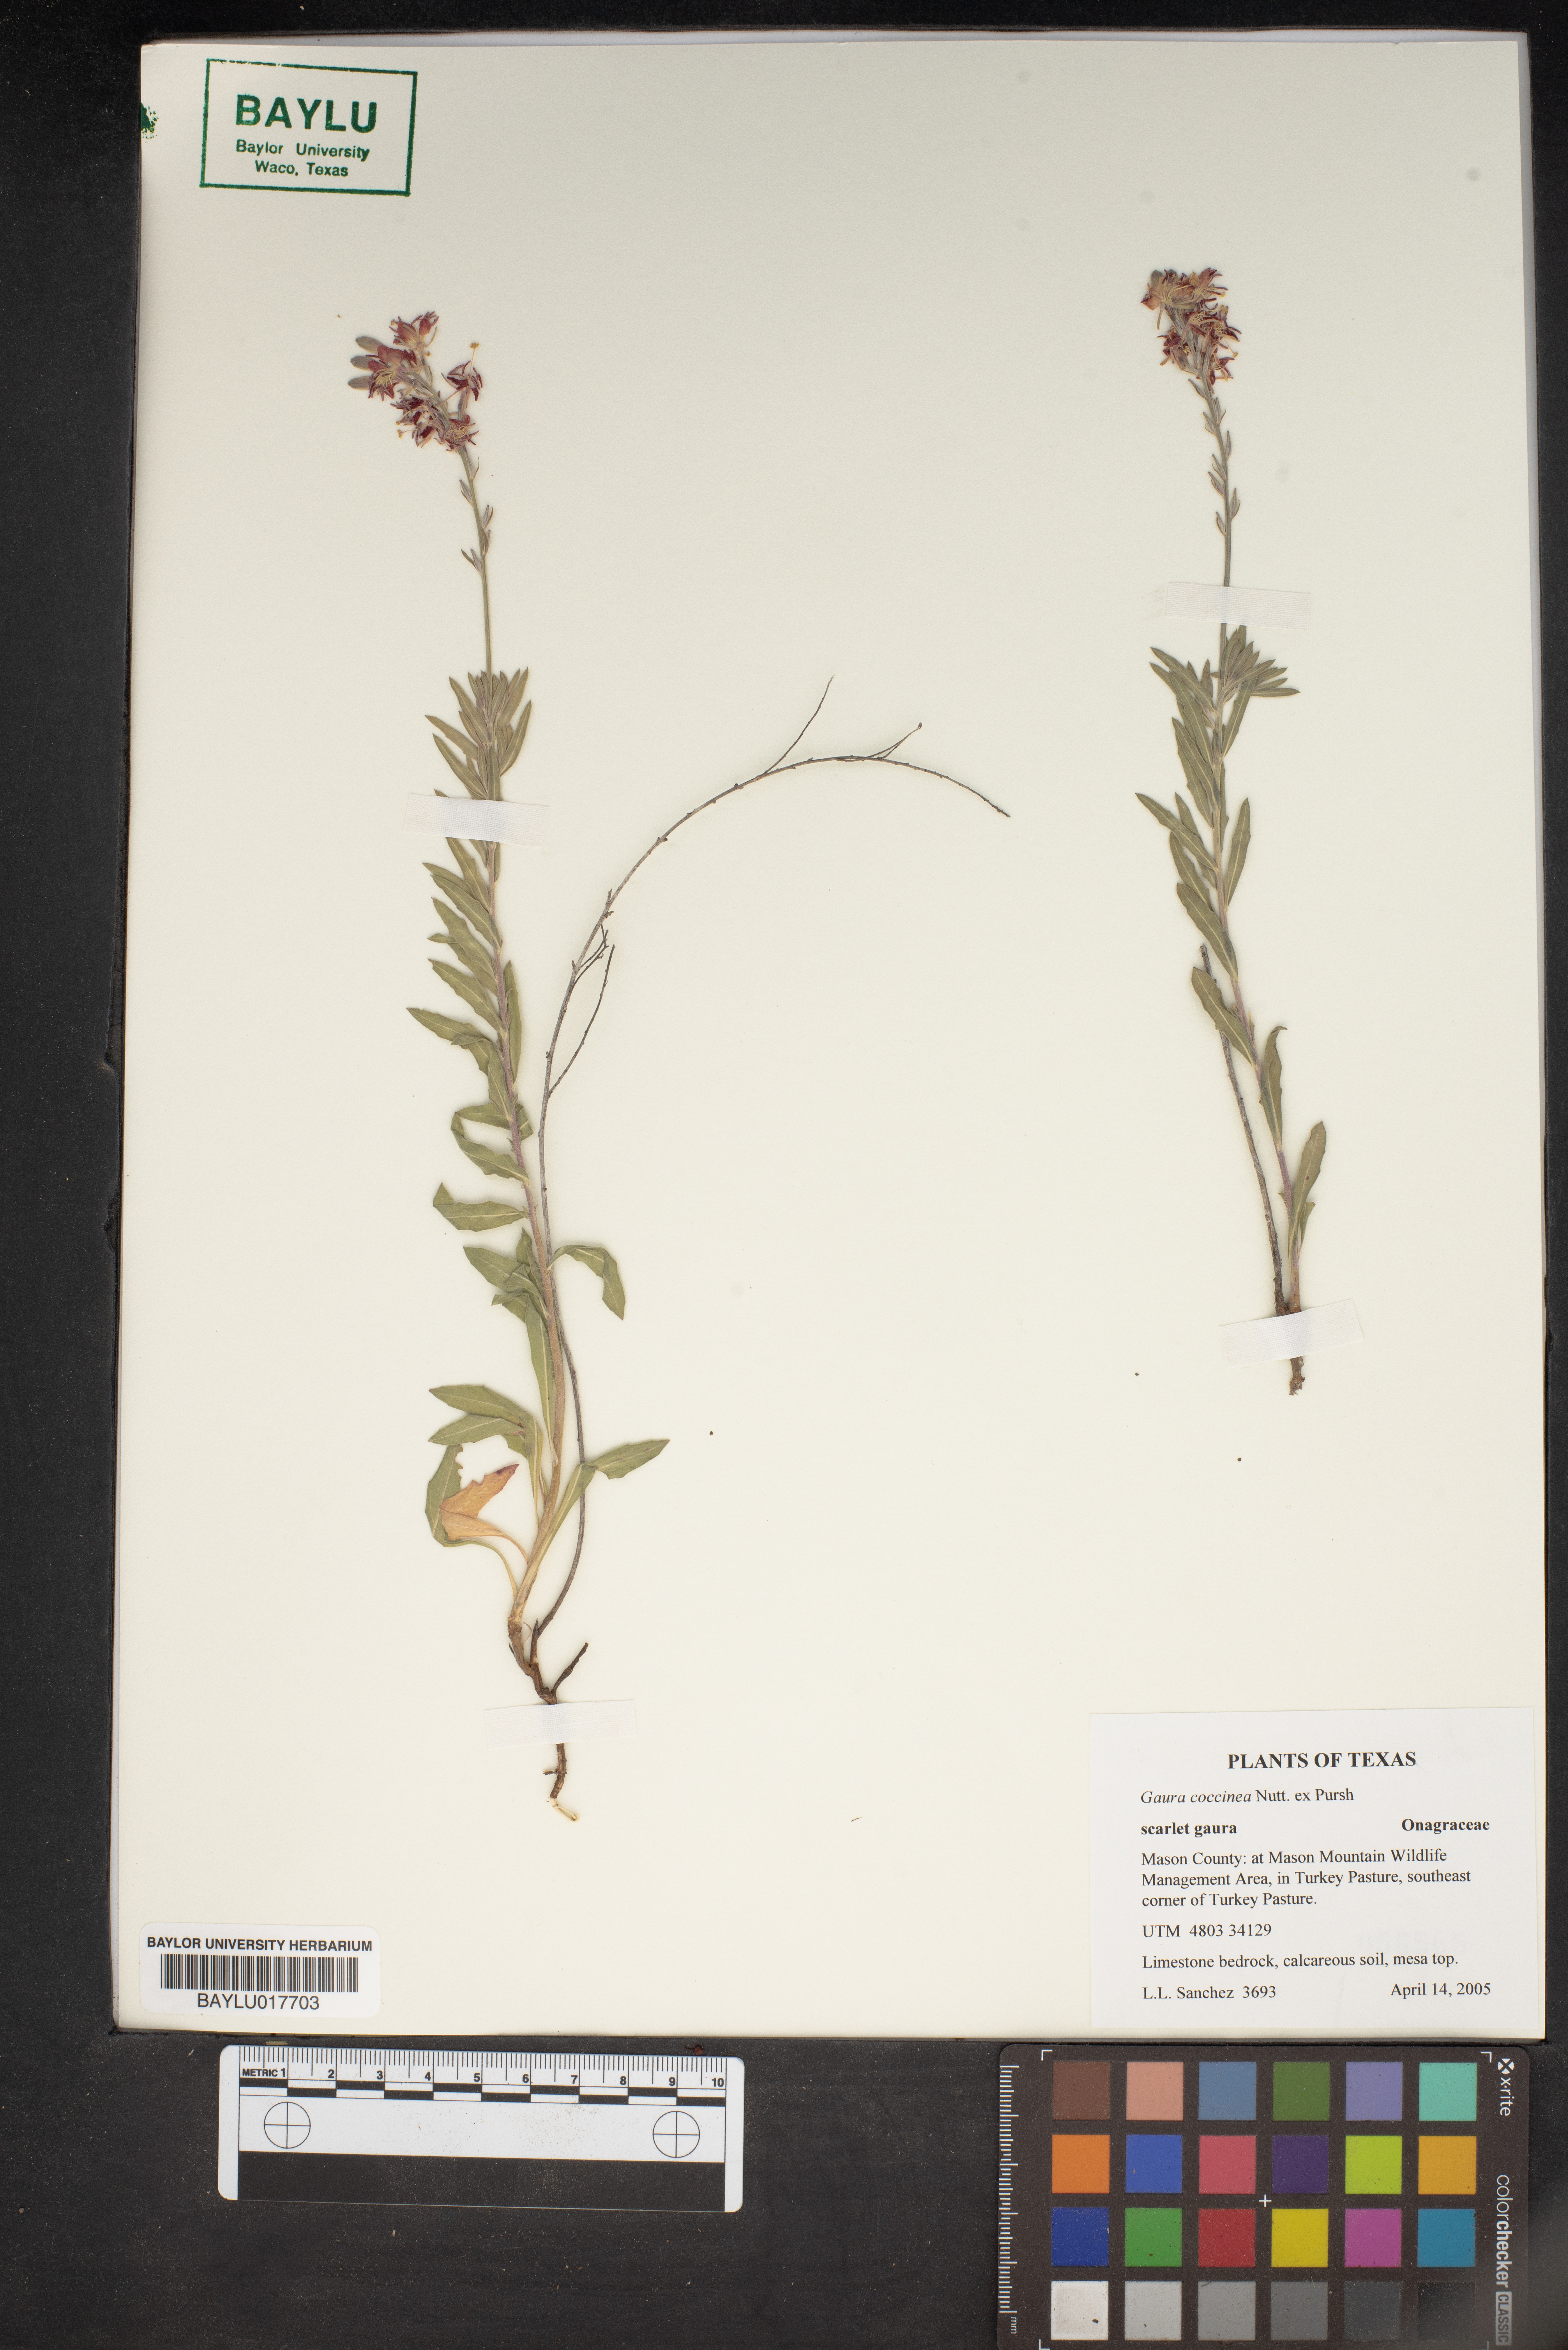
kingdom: Plantae
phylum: Tracheophyta
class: Magnoliopsida
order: Myrtales
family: Onagraceae
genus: Oenothera
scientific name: Oenothera suffrutescens
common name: Scarlet beeblossom
